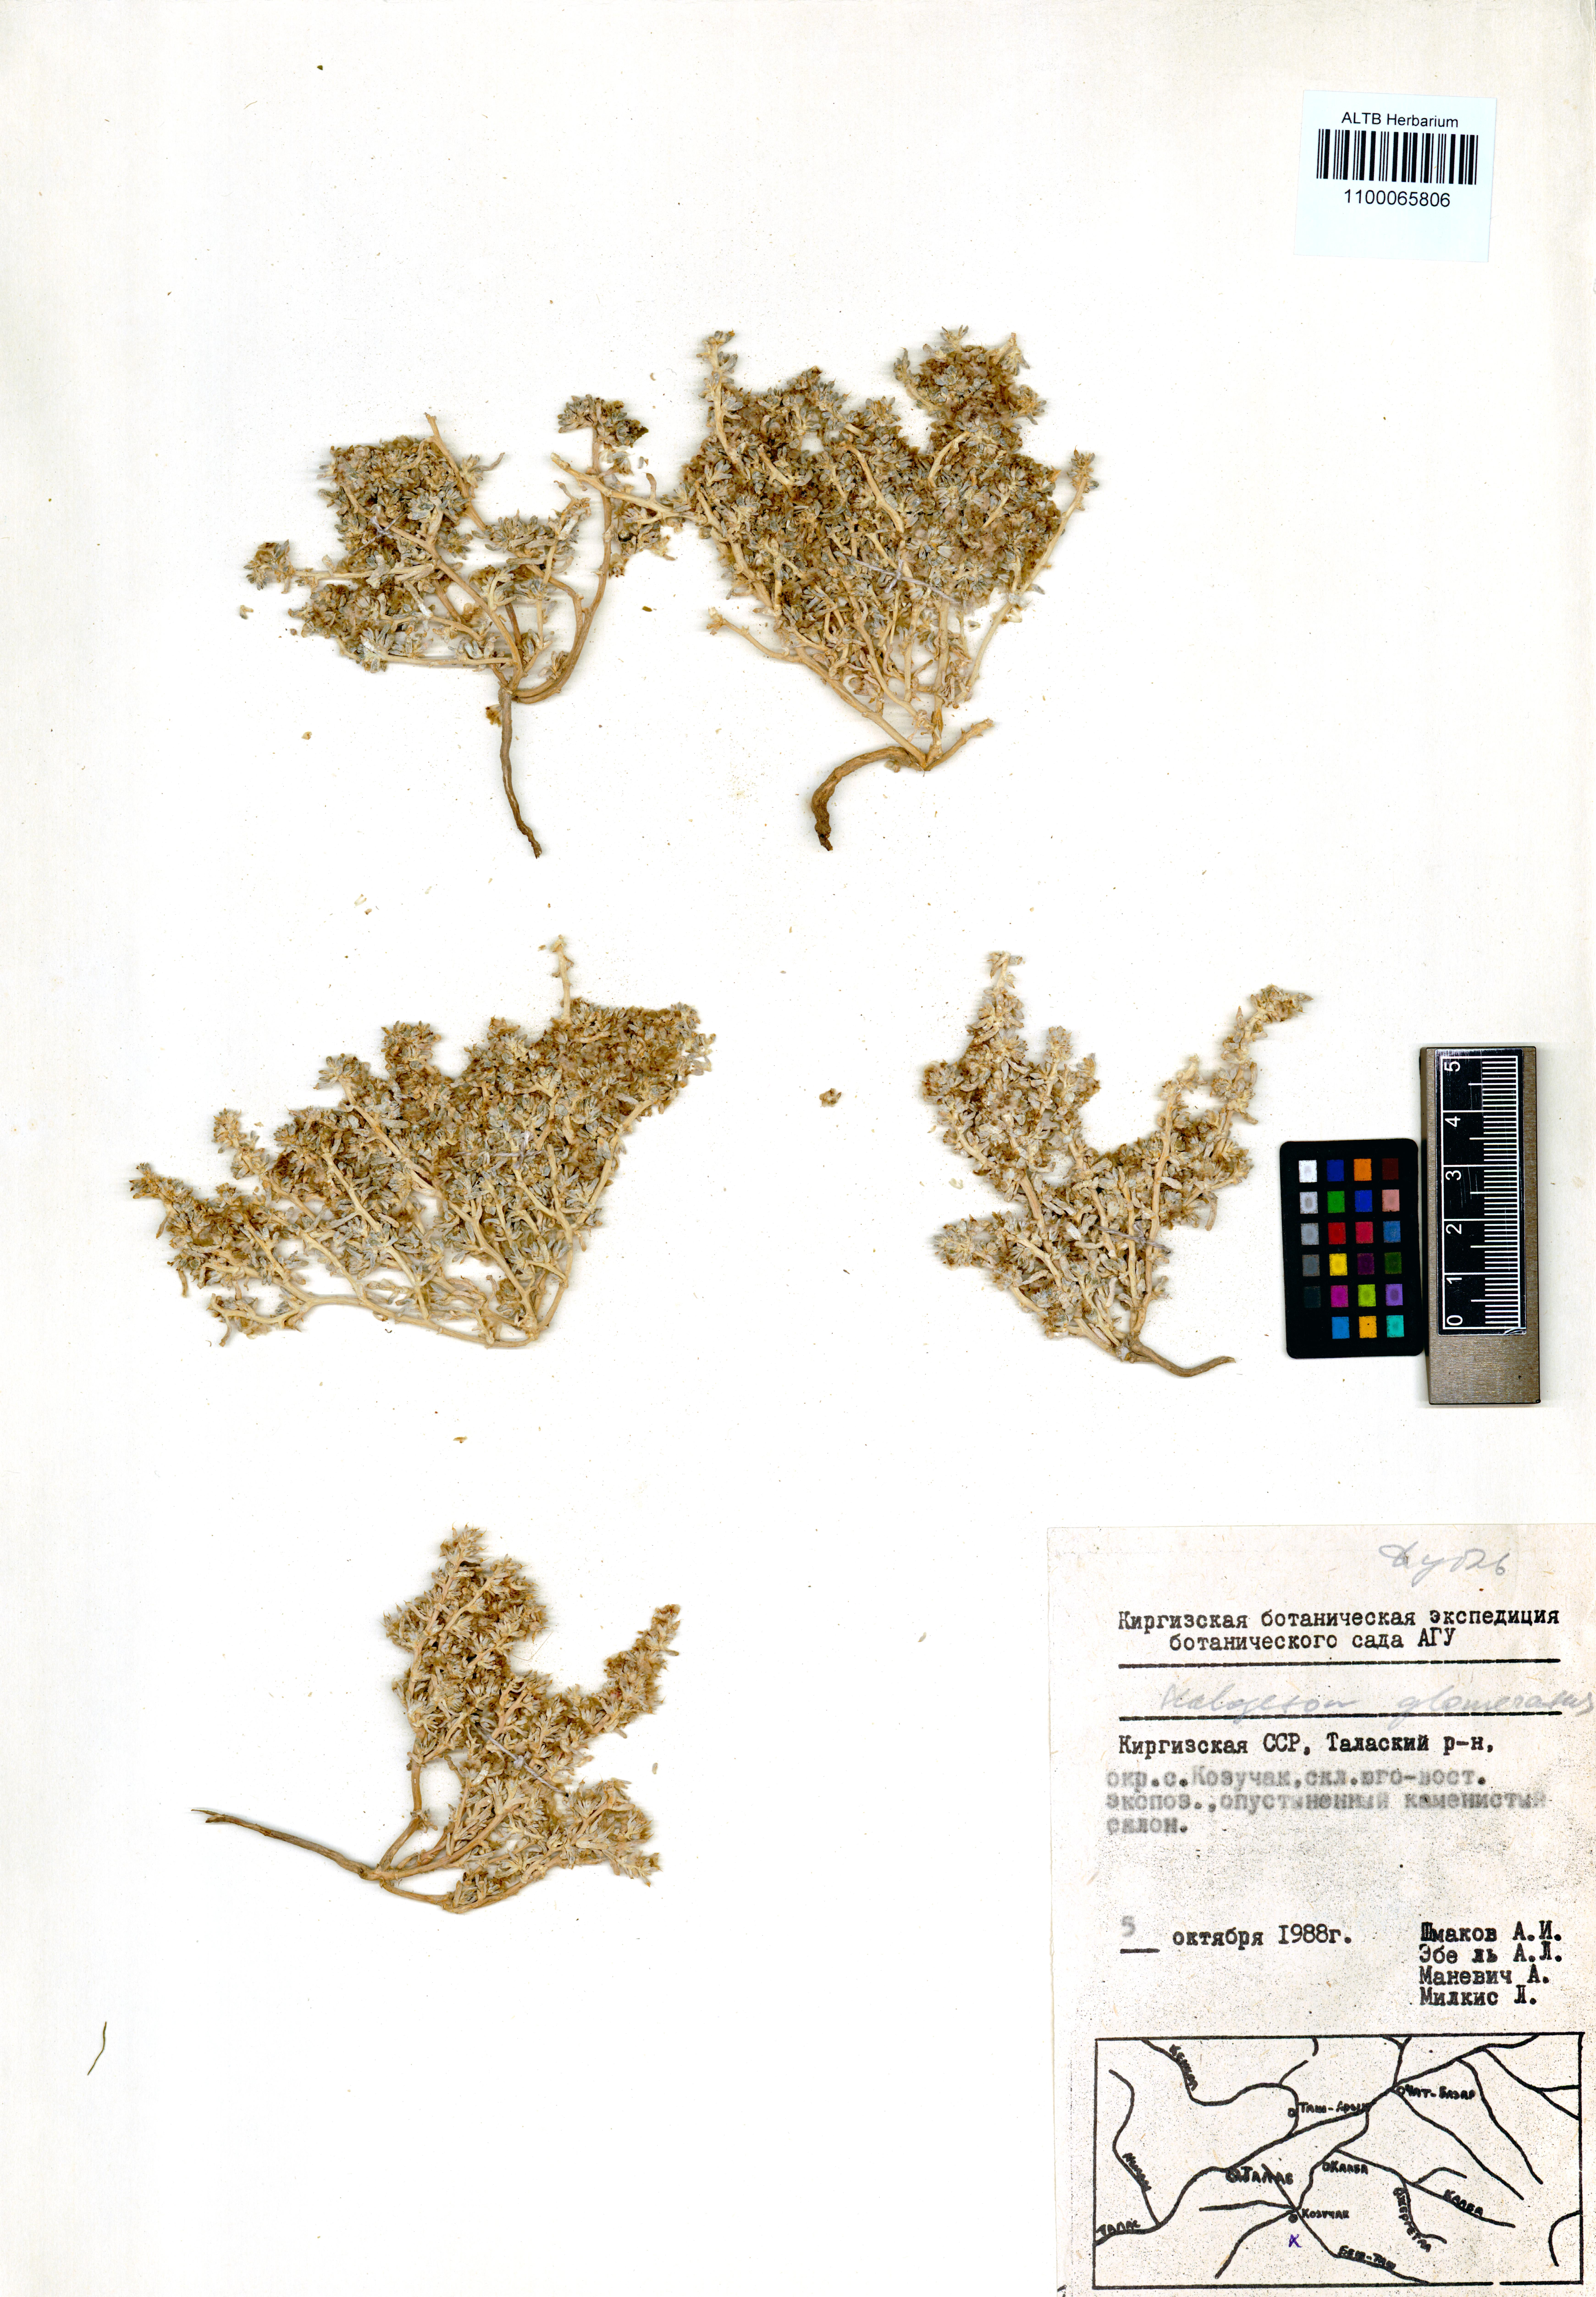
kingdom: Plantae
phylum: Tracheophyta
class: Magnoliopsida
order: Caryophyllales
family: Amaranthaceae
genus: Halogeton
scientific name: Halogeton glomeratus
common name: Saltlover
